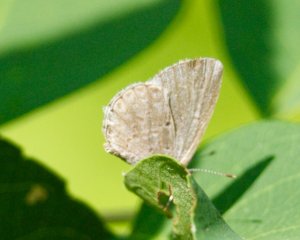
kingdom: Animalia
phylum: Arthropoda
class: Insecta
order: Lepidoptera
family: Lycaenidae
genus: Celastrina
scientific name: Celastrina
